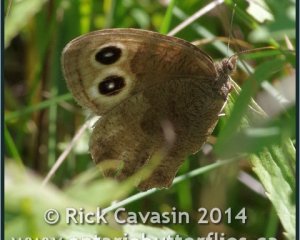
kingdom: Animalia
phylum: Arthropoda
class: Insecta
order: Lepidoptera
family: Nymphalidae
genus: Cercyonis
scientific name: Cercyonis pegala
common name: Common Wood-Nymph
